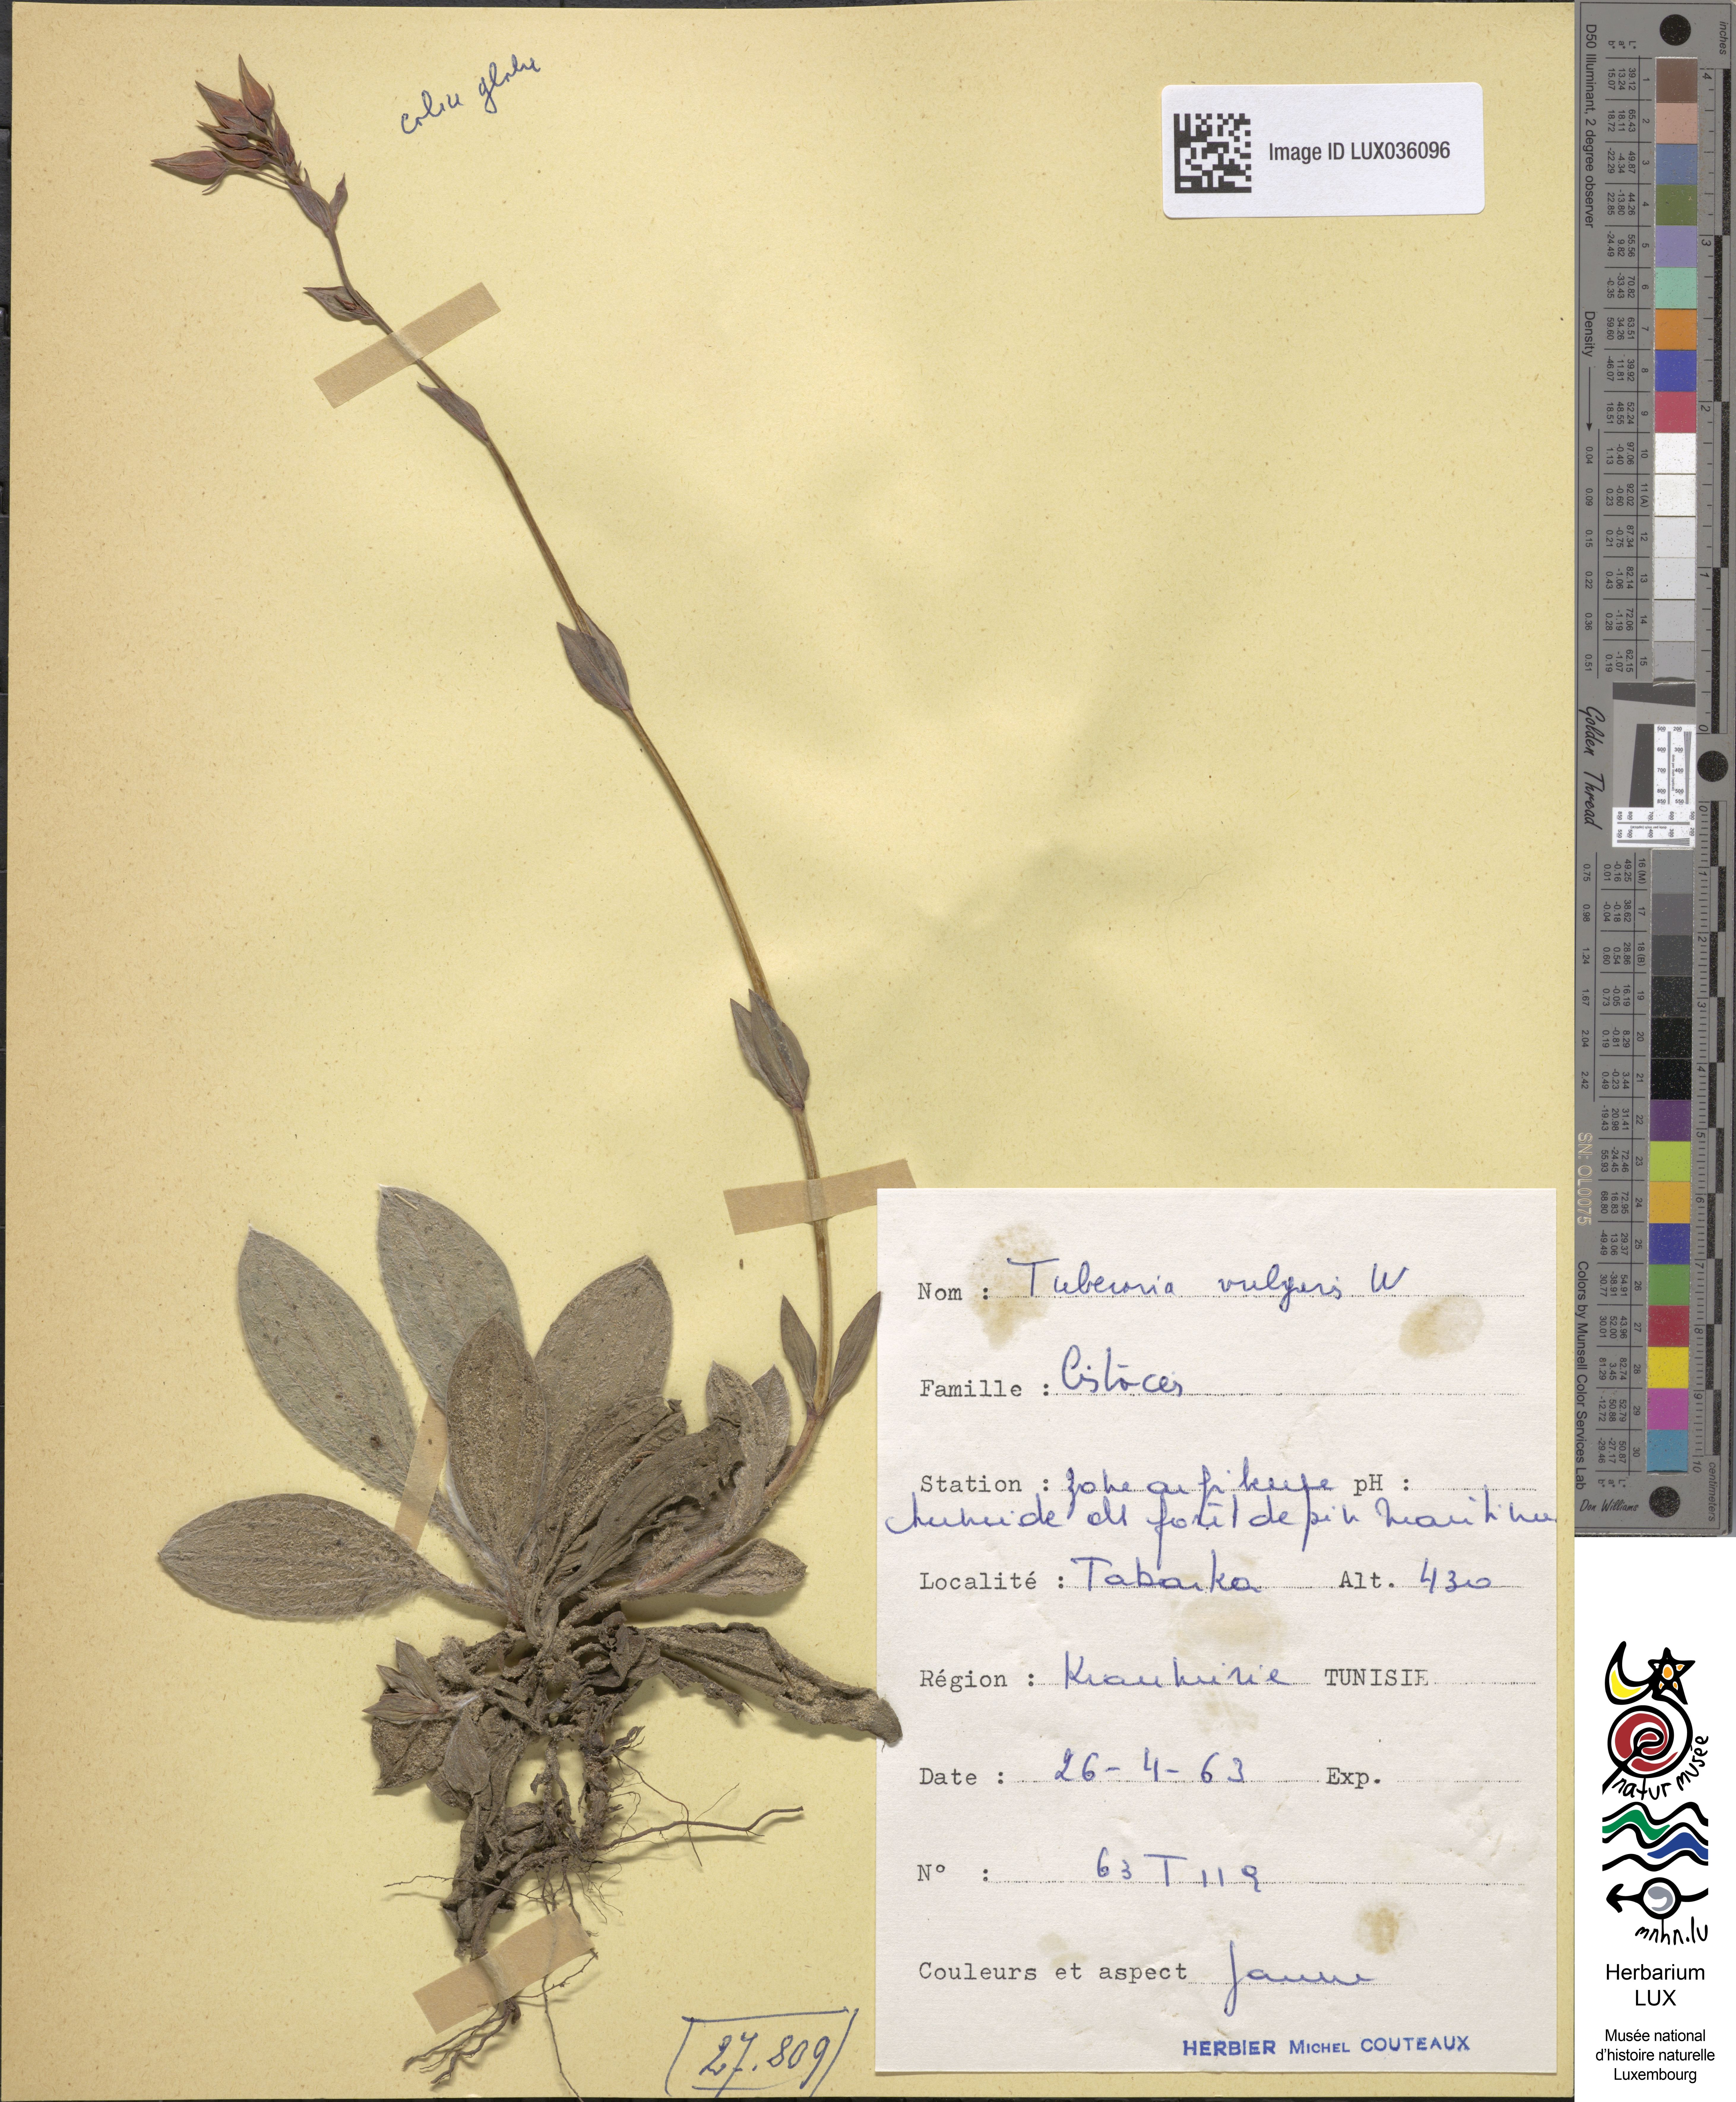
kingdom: Plantae
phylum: Tracheophyta
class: Magnoliopsida
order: Malvales
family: Cistaceae
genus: Tuberaria
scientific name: Tuberaria lignosa
